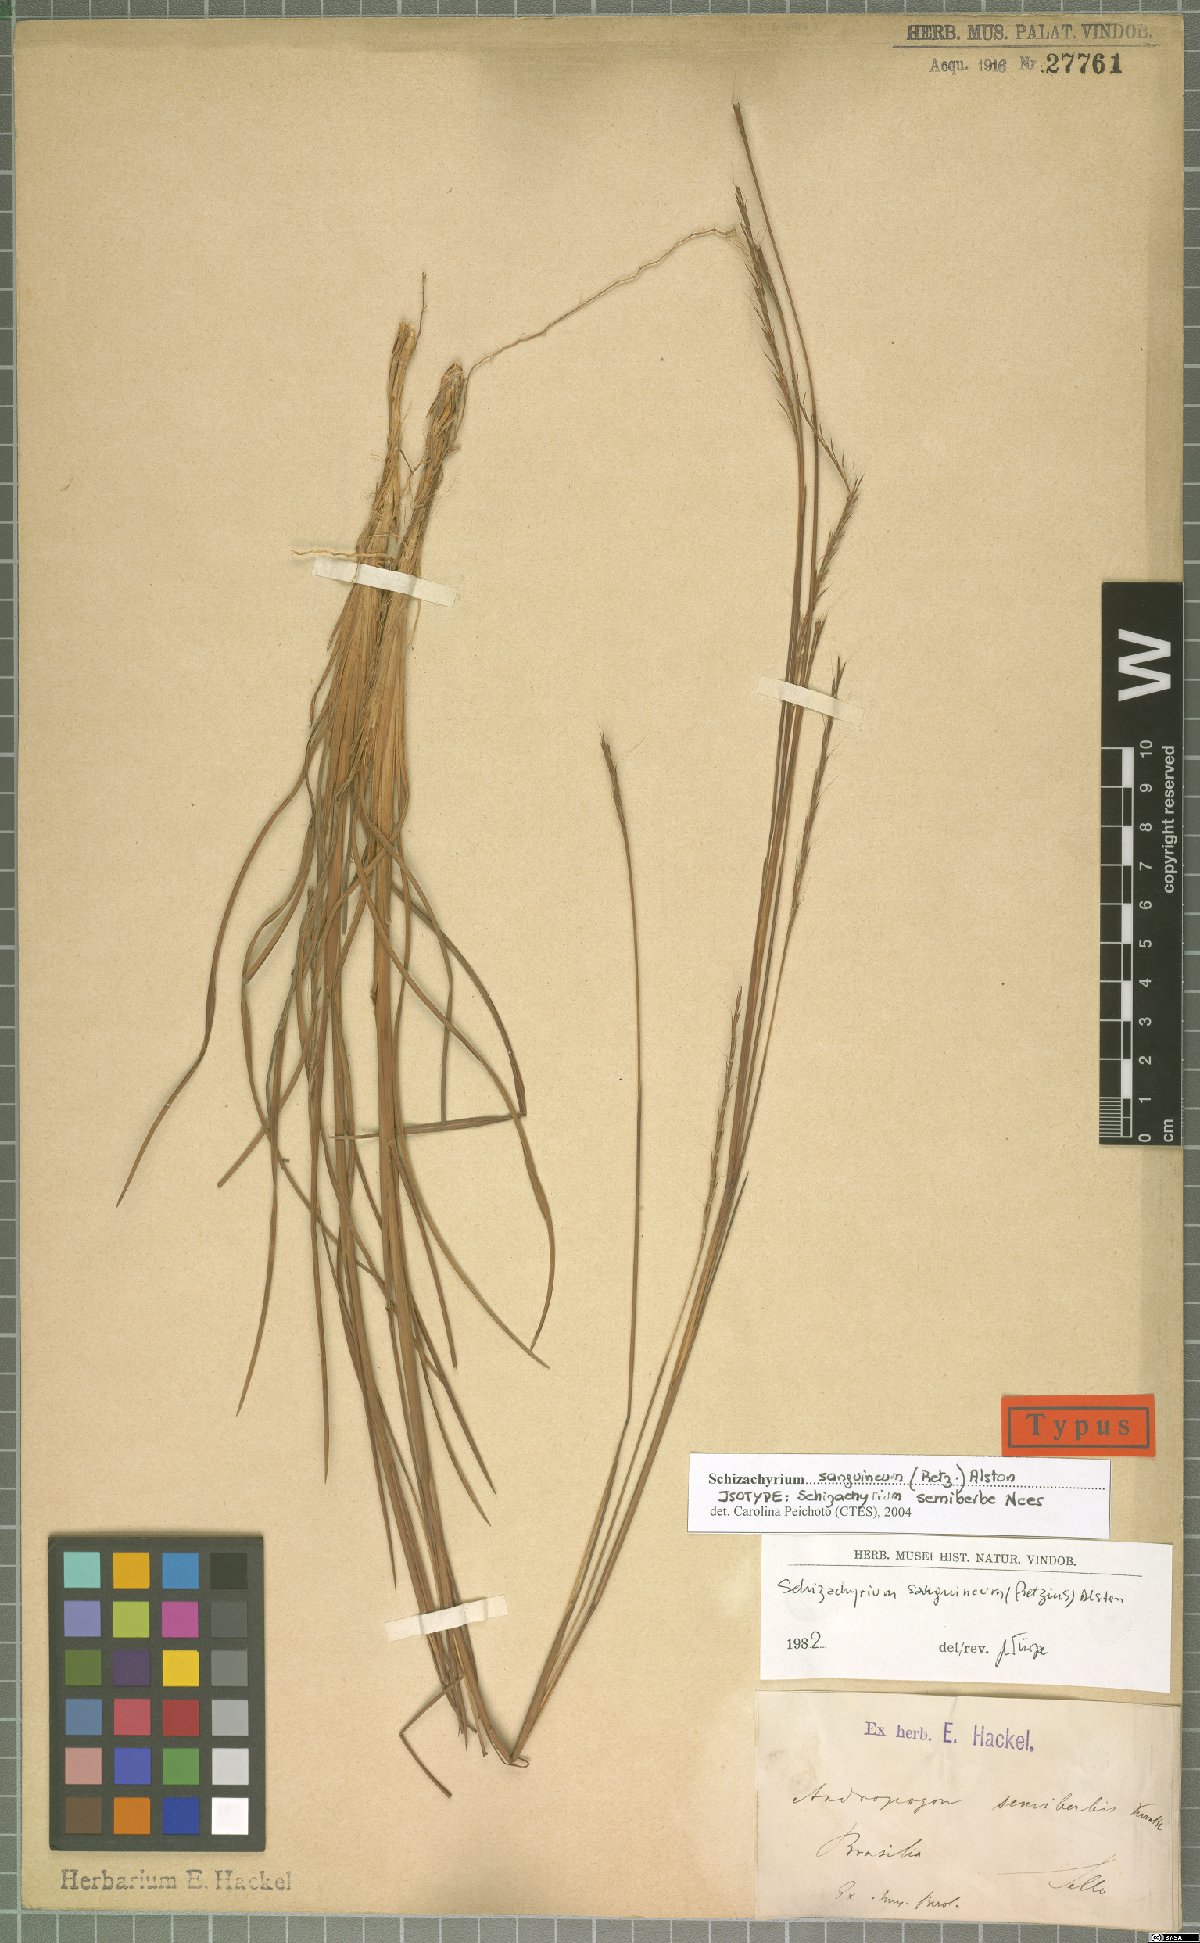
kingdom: Plantae
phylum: Tracheophyta
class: Liliopsida
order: Poales
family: Poaceae
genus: Schizachyrium
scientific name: Schizachyrium sanguineum
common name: Crimson bluestem
